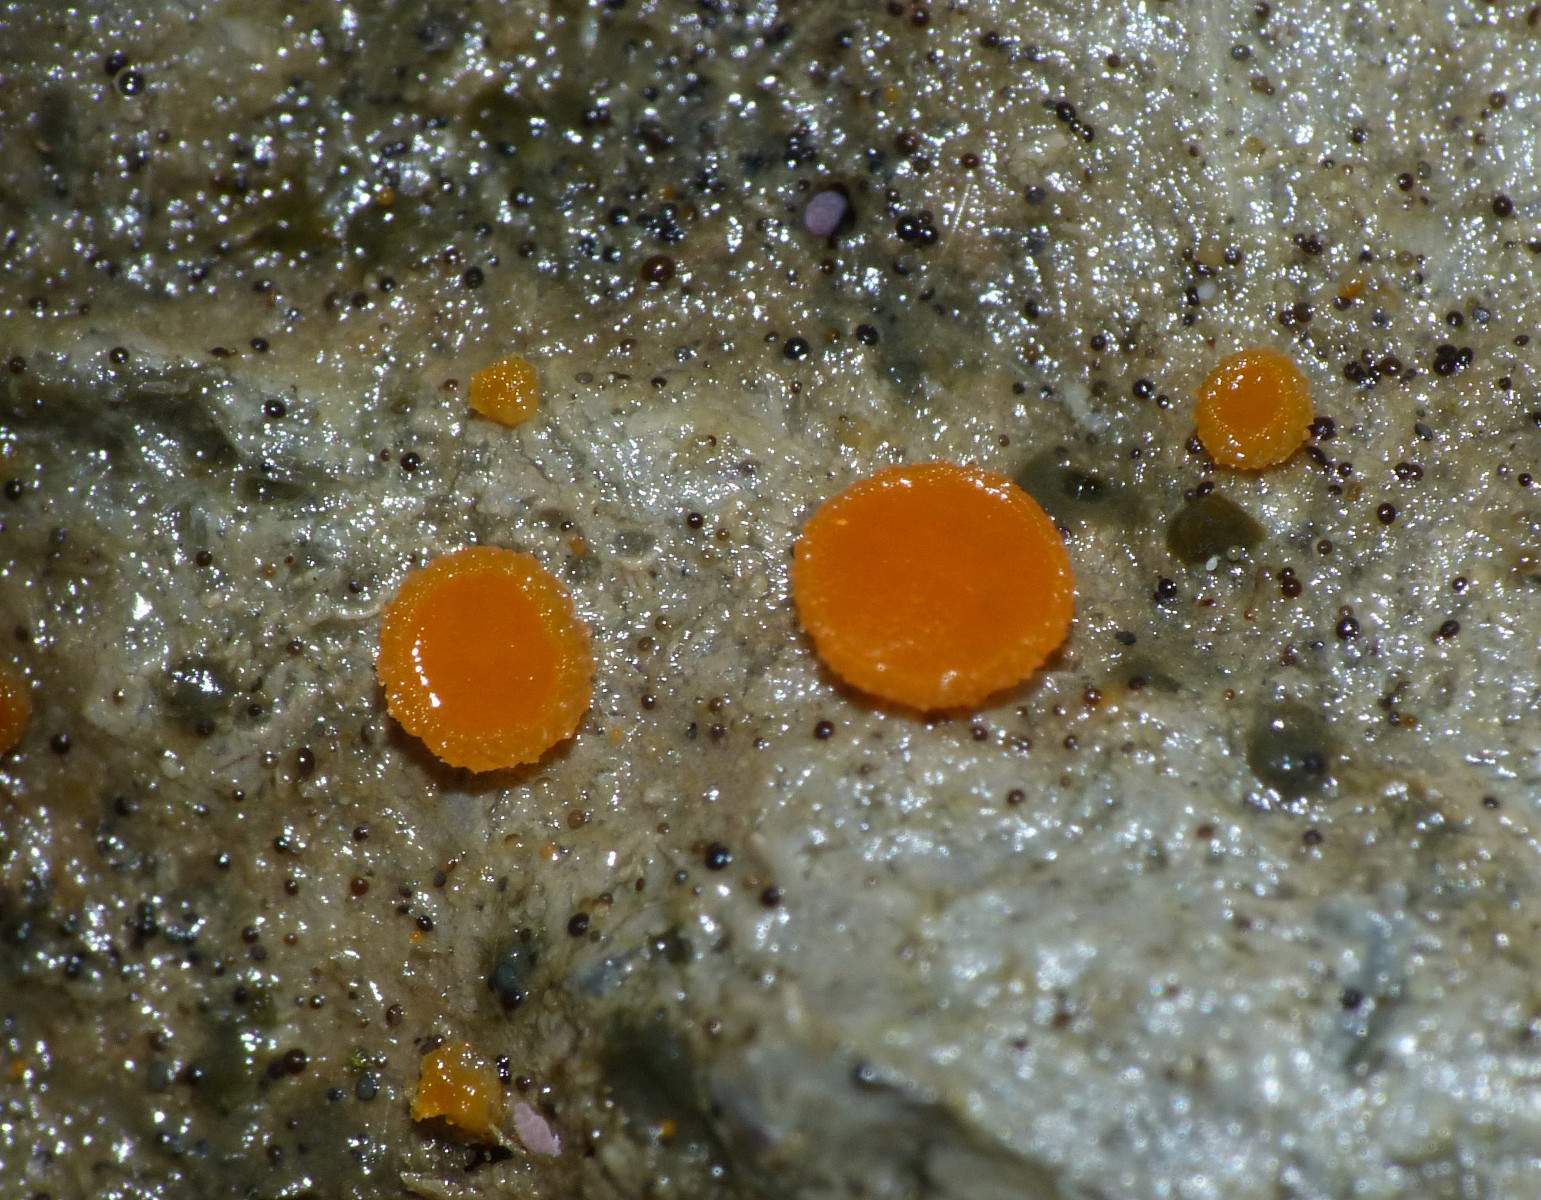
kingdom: Fungi
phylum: Ascomycota
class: Pezizomycetes
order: Pezizales
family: Pyronemataceae
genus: Cheilymenia
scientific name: Cheilymenia granulata
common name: møgbæger
